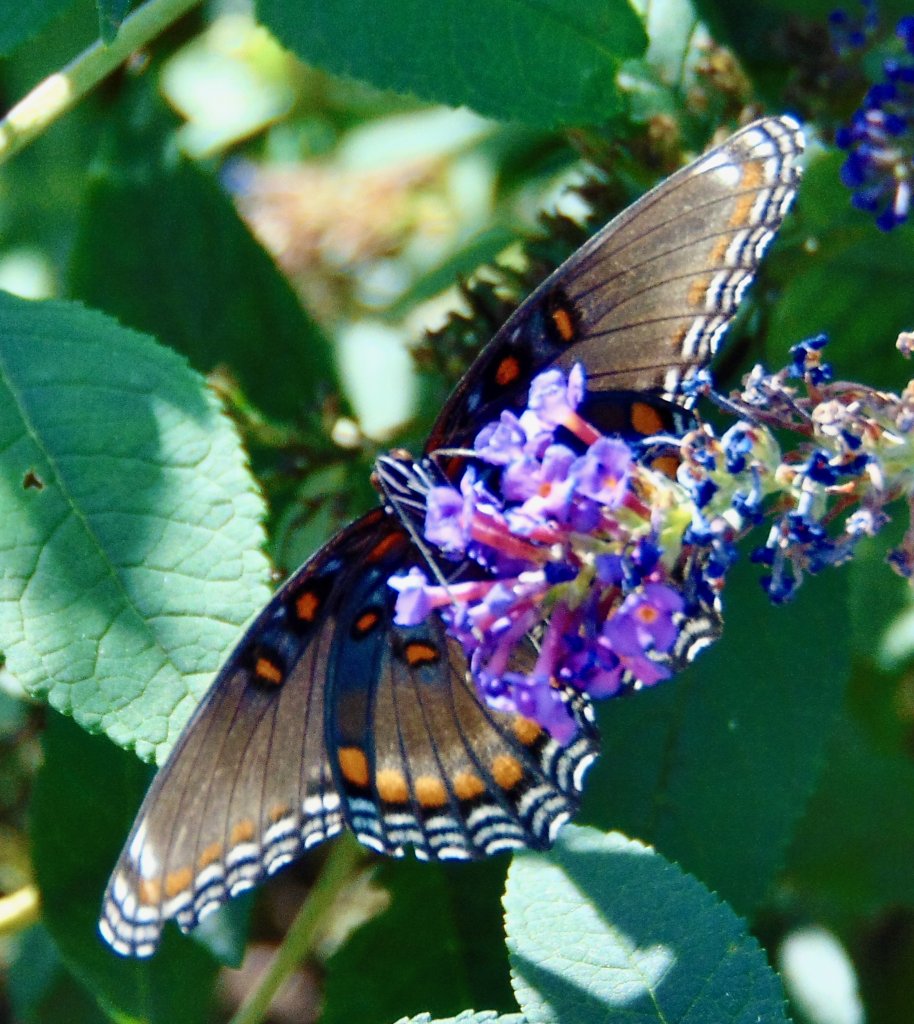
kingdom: Animalia
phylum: Arthropoda
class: Insecta
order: Lepidoptera
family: Nymphalidae
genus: Limenitis
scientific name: Limenitis astyanax
